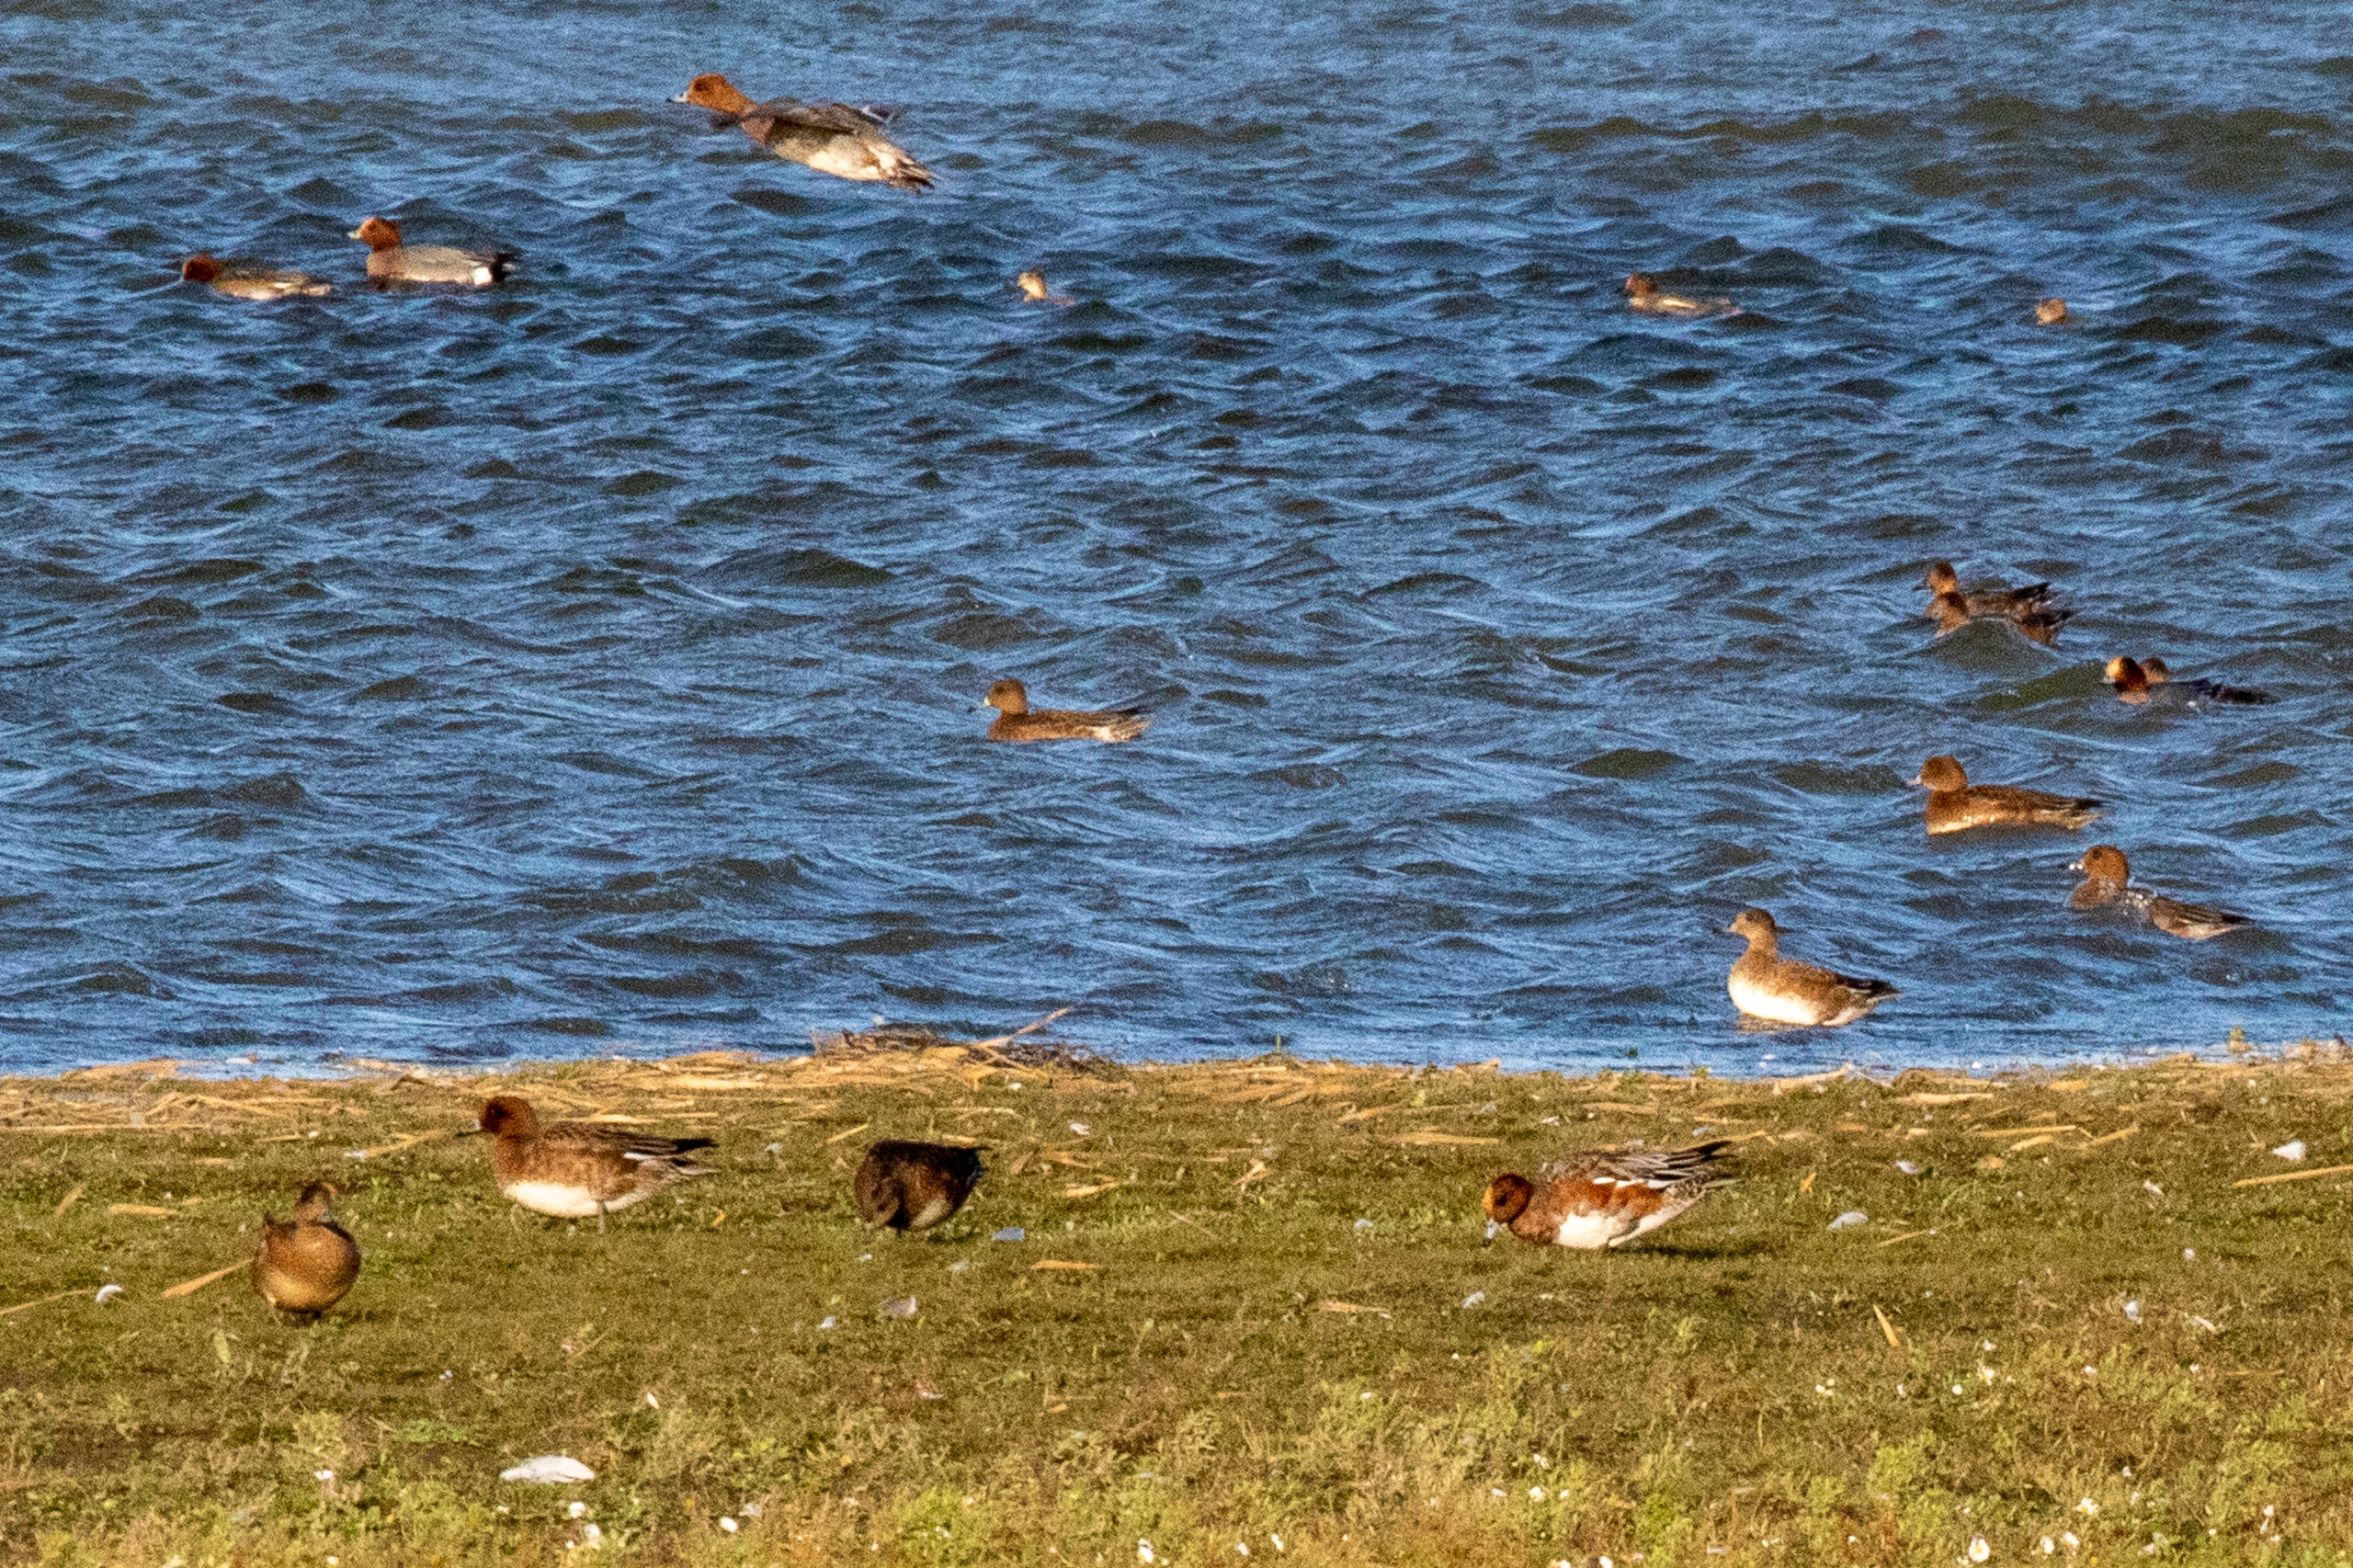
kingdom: Animalia
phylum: Chordata
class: Aves
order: Anseriformes
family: Anatidae
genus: Mareca
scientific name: Mareca penelope
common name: Pibeand
